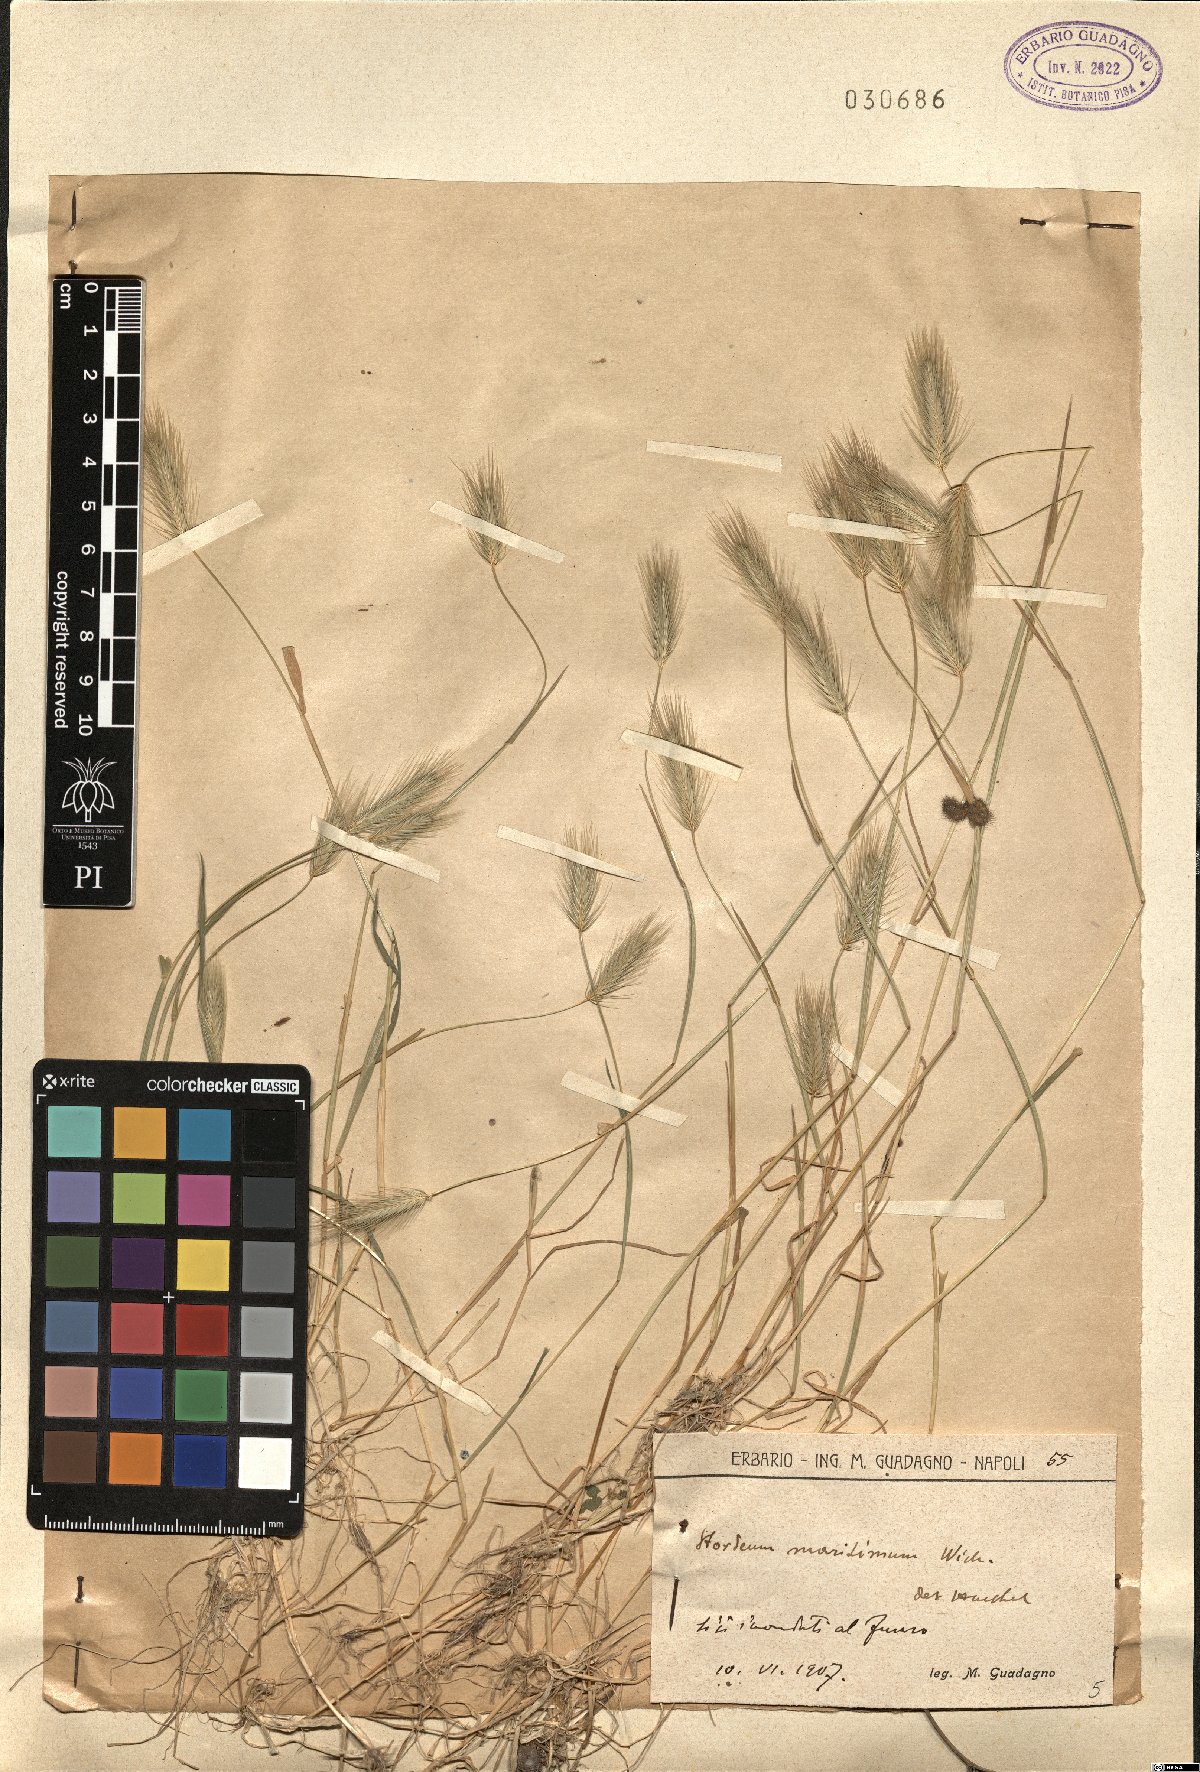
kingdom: Plantae
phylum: Tracheophyta
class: Liliopsida
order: Poales
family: Poaceae
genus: Hordeum
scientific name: Hordeum marinum
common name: Sea barley
